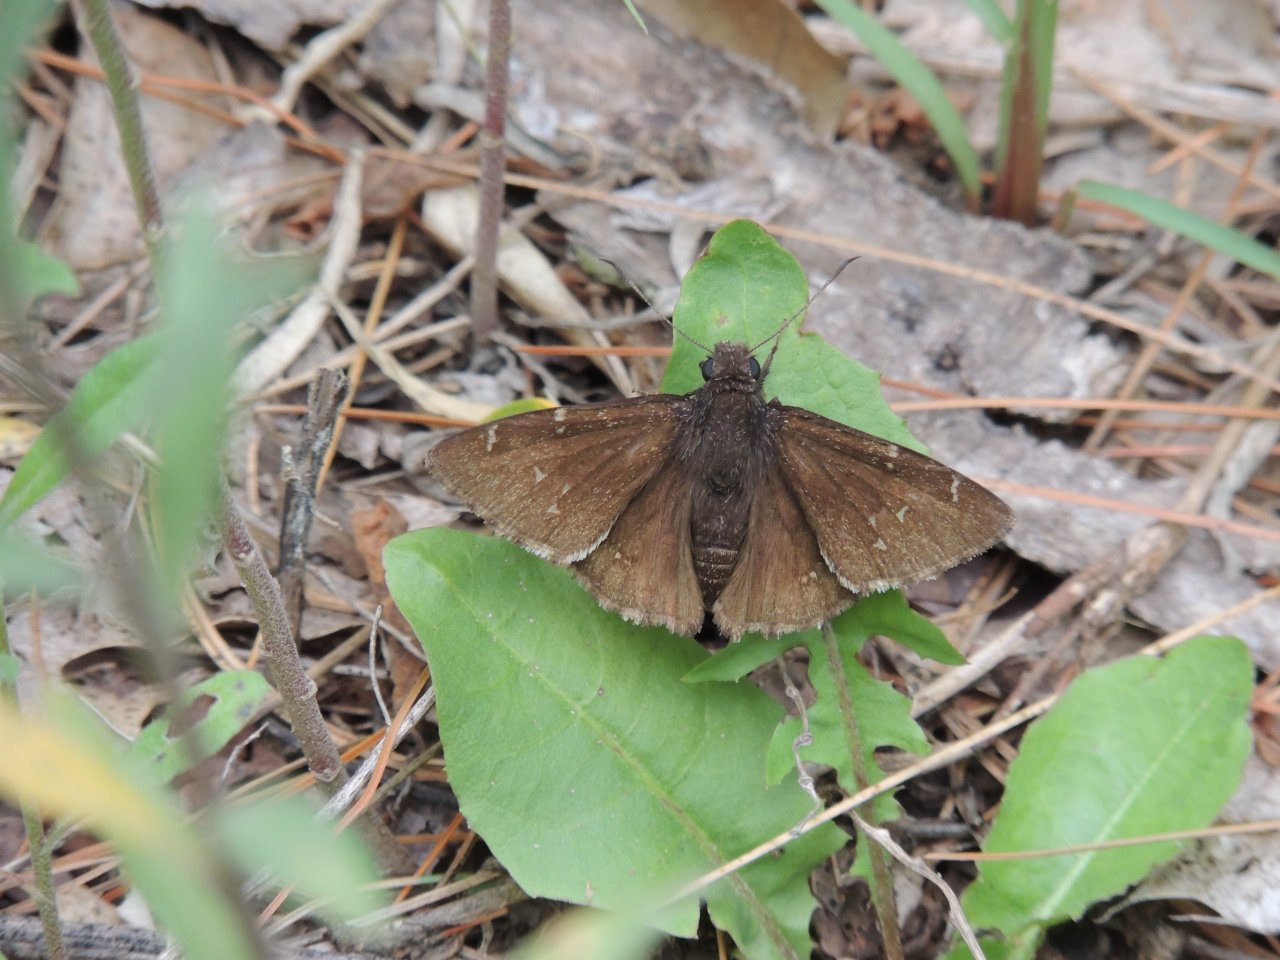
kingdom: Animalia
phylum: Arthropoda
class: Insecta
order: Lepidoptera
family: Hesperiidae
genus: Autochton
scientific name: Autochton
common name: Northern Cloudywing
